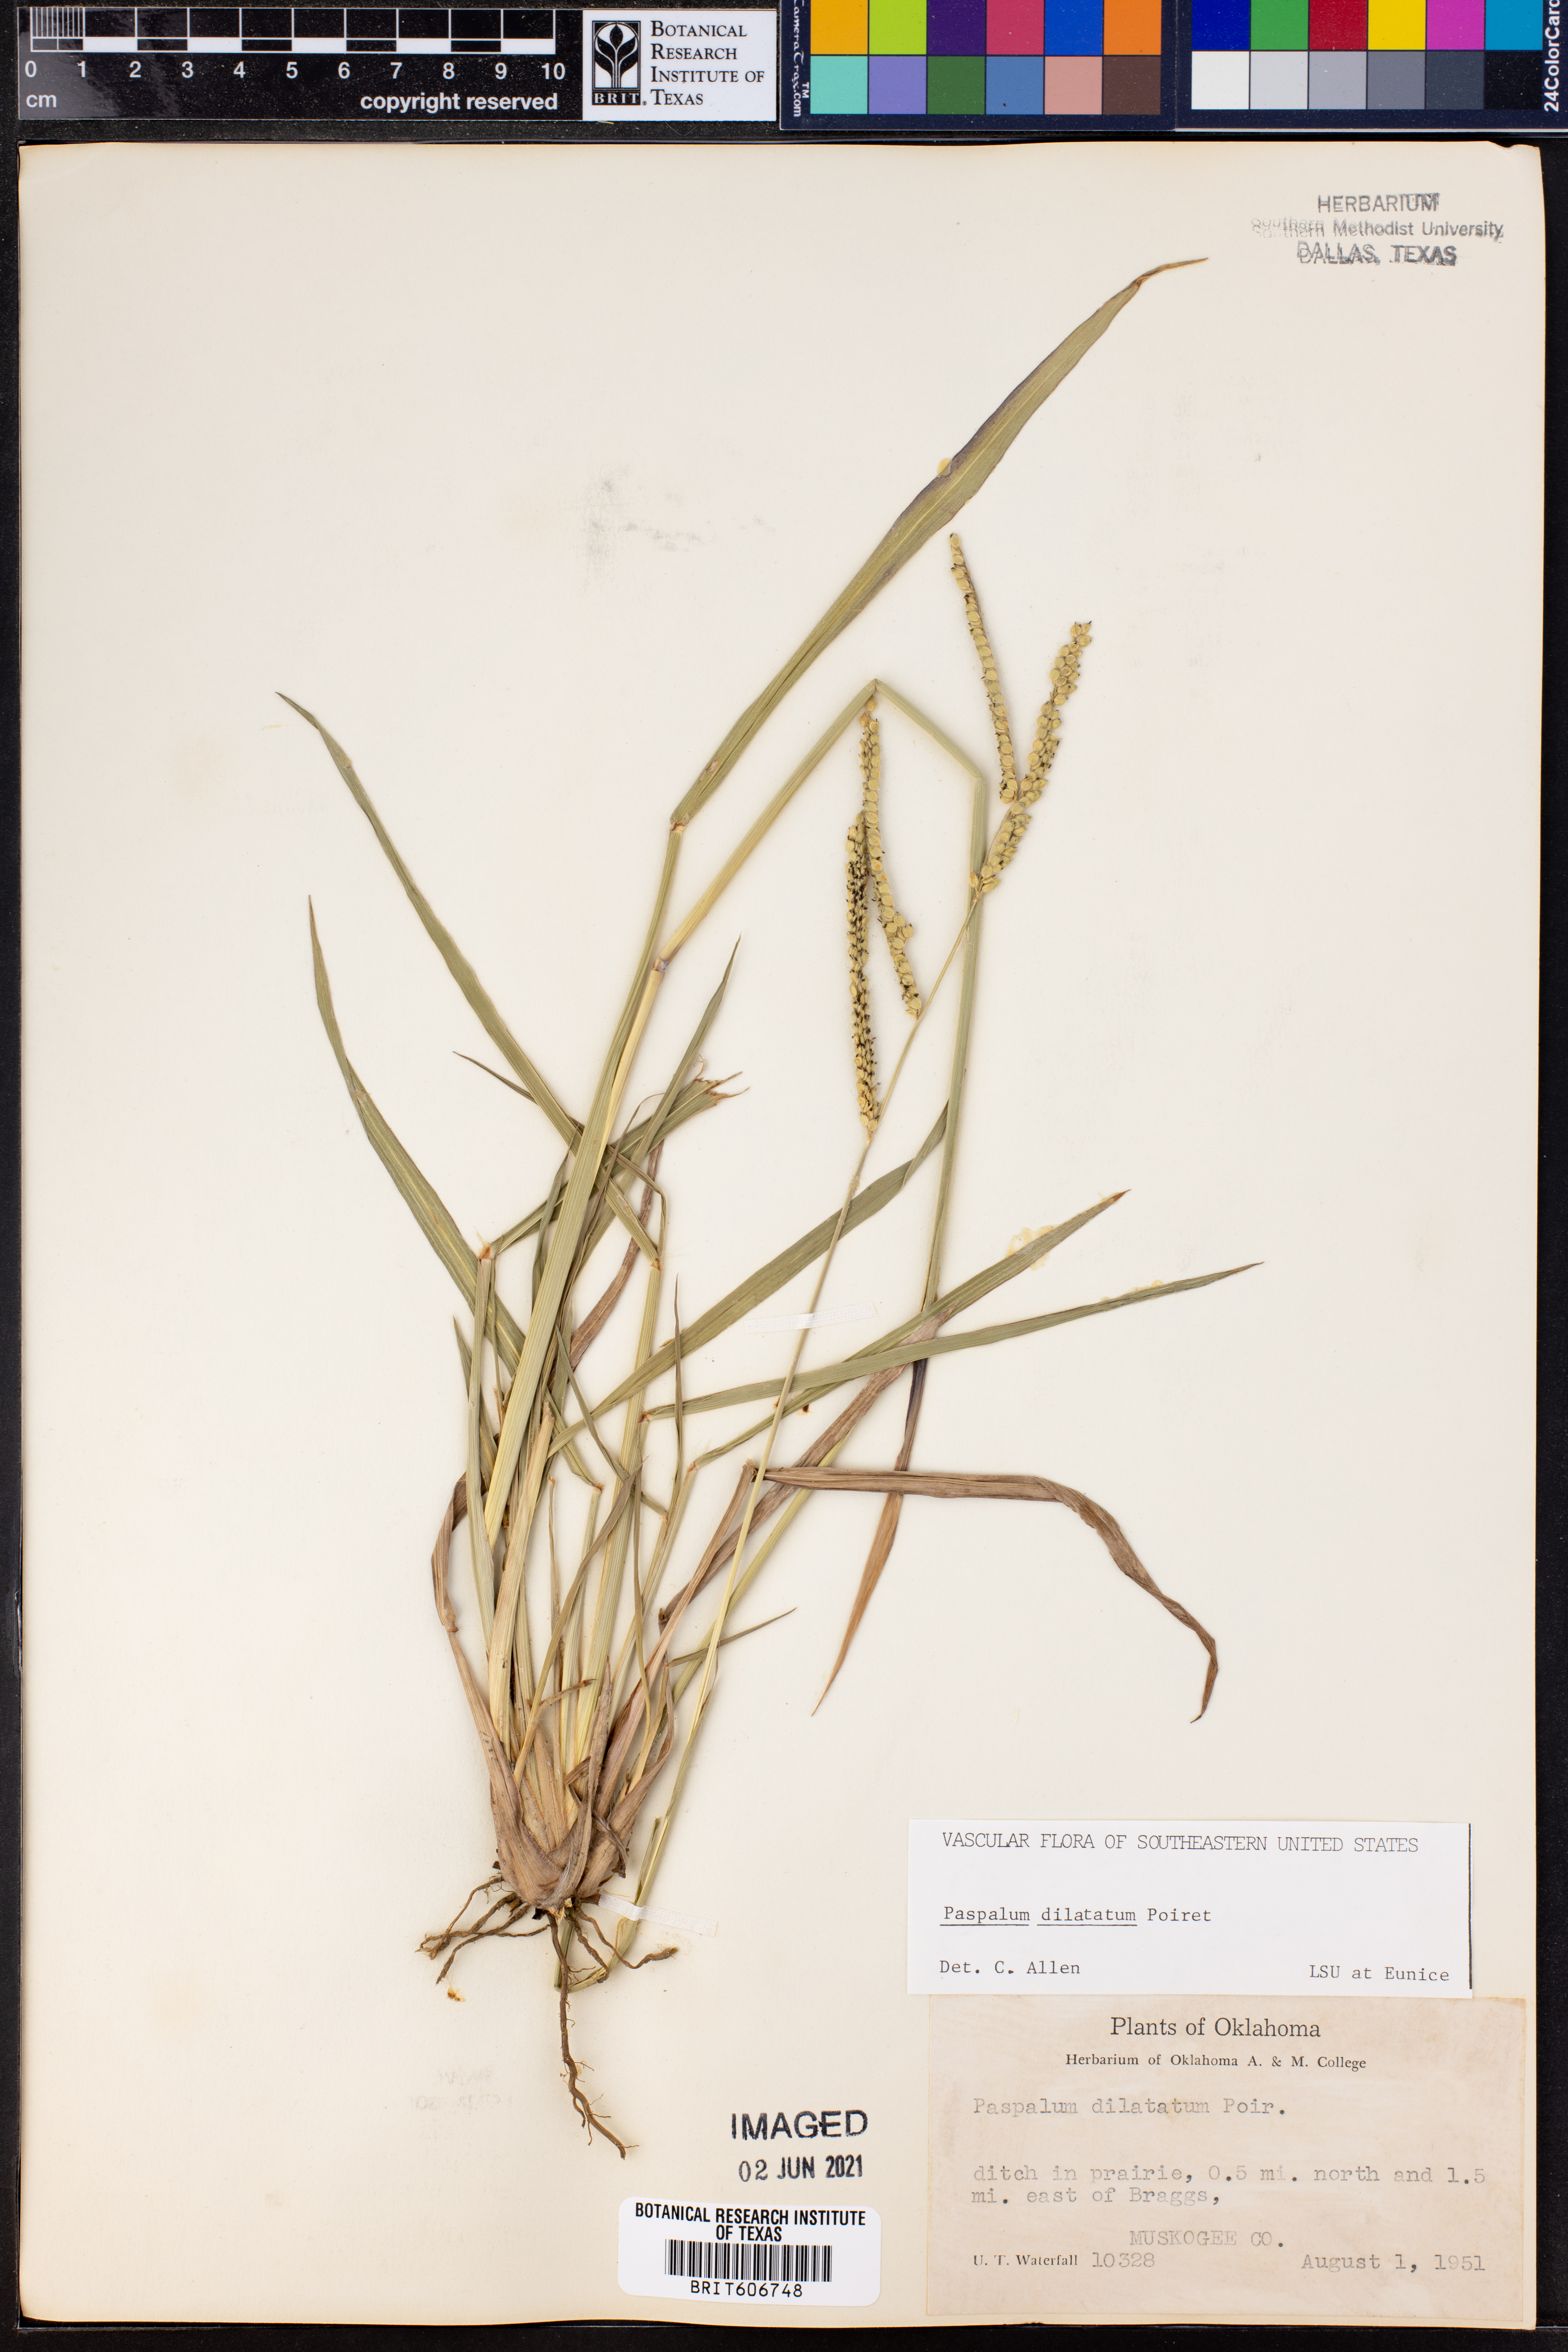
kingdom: Plantae
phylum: Tracheophyta
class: Liliopsida
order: Poales
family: Poaceae
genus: Paspalum
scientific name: Paspalum dilatatum
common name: Dallisgrass
